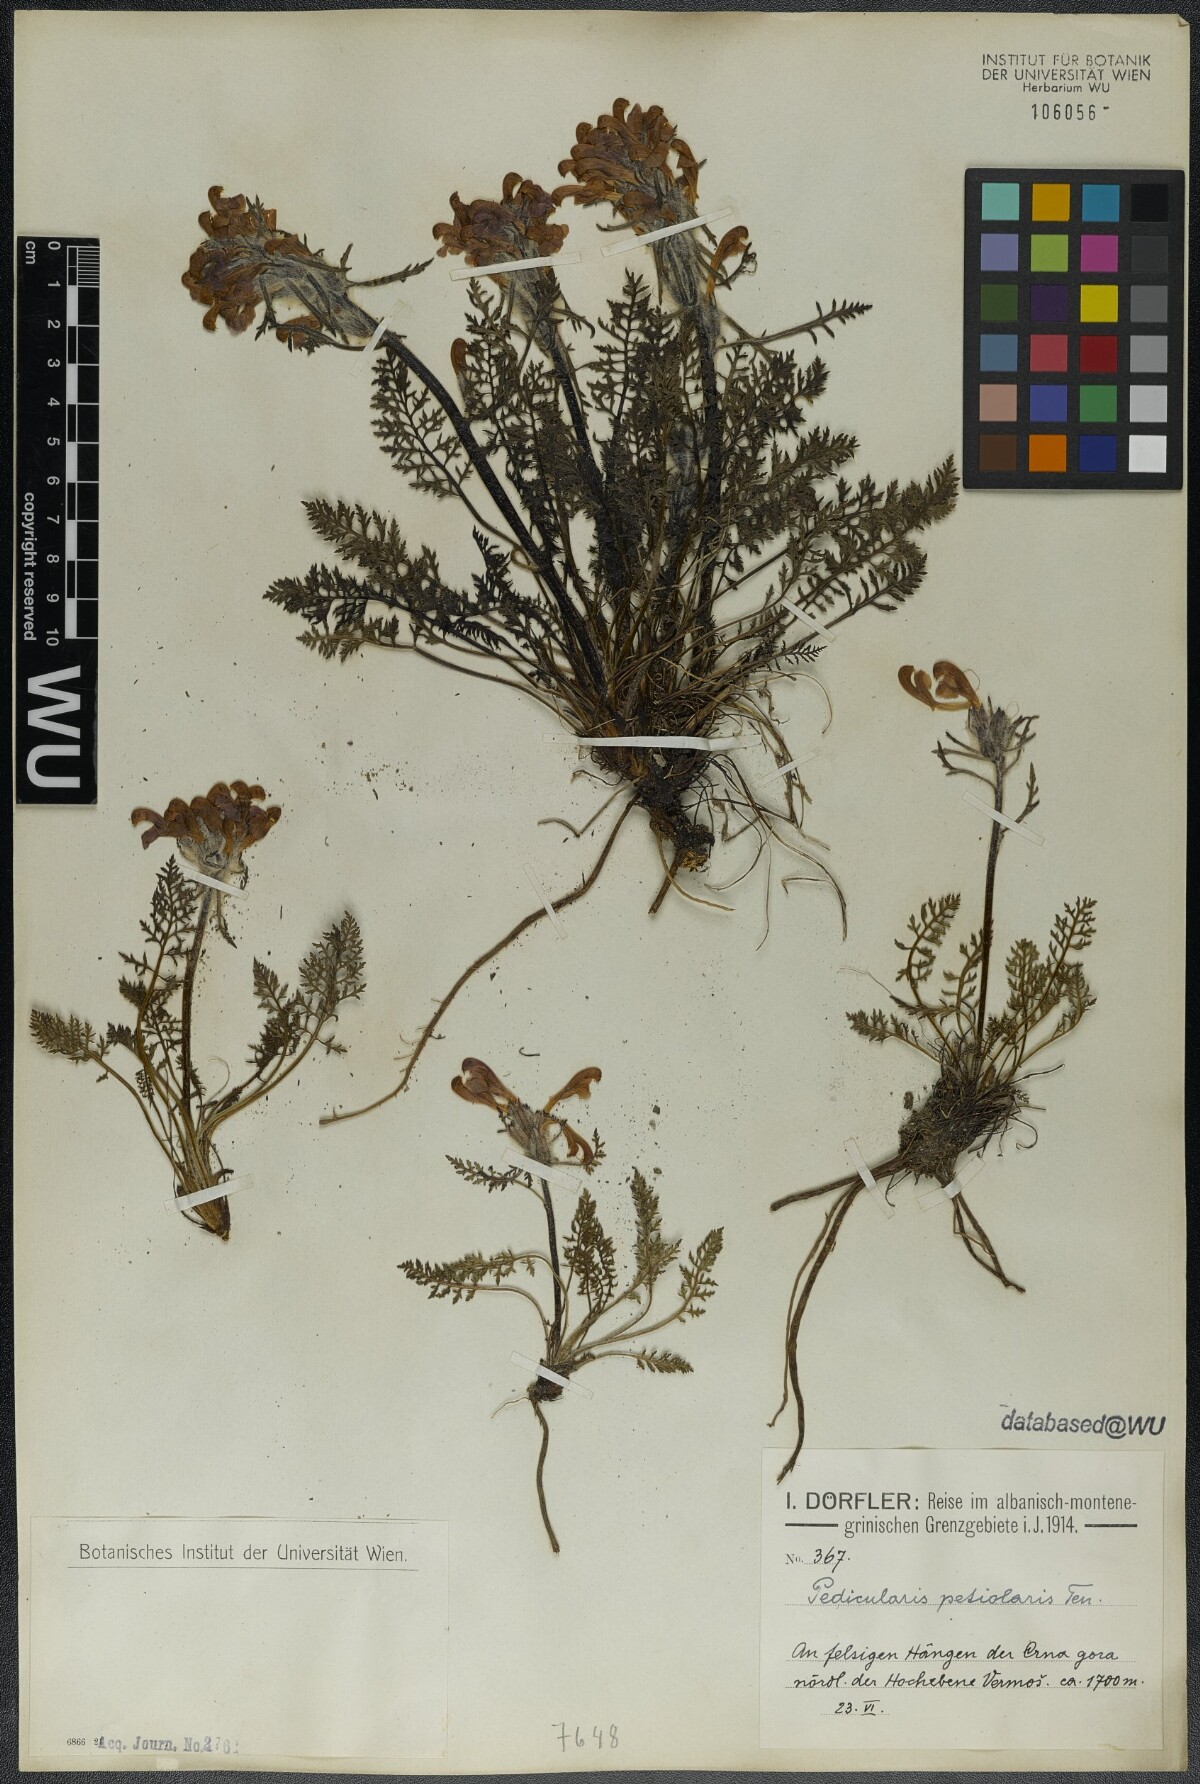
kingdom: Plantae
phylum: Tracheophyta
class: Magnoliopsida
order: Lamiales
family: Orobanchaceae
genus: Pedicularis
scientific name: Pedicularis petiolaris
